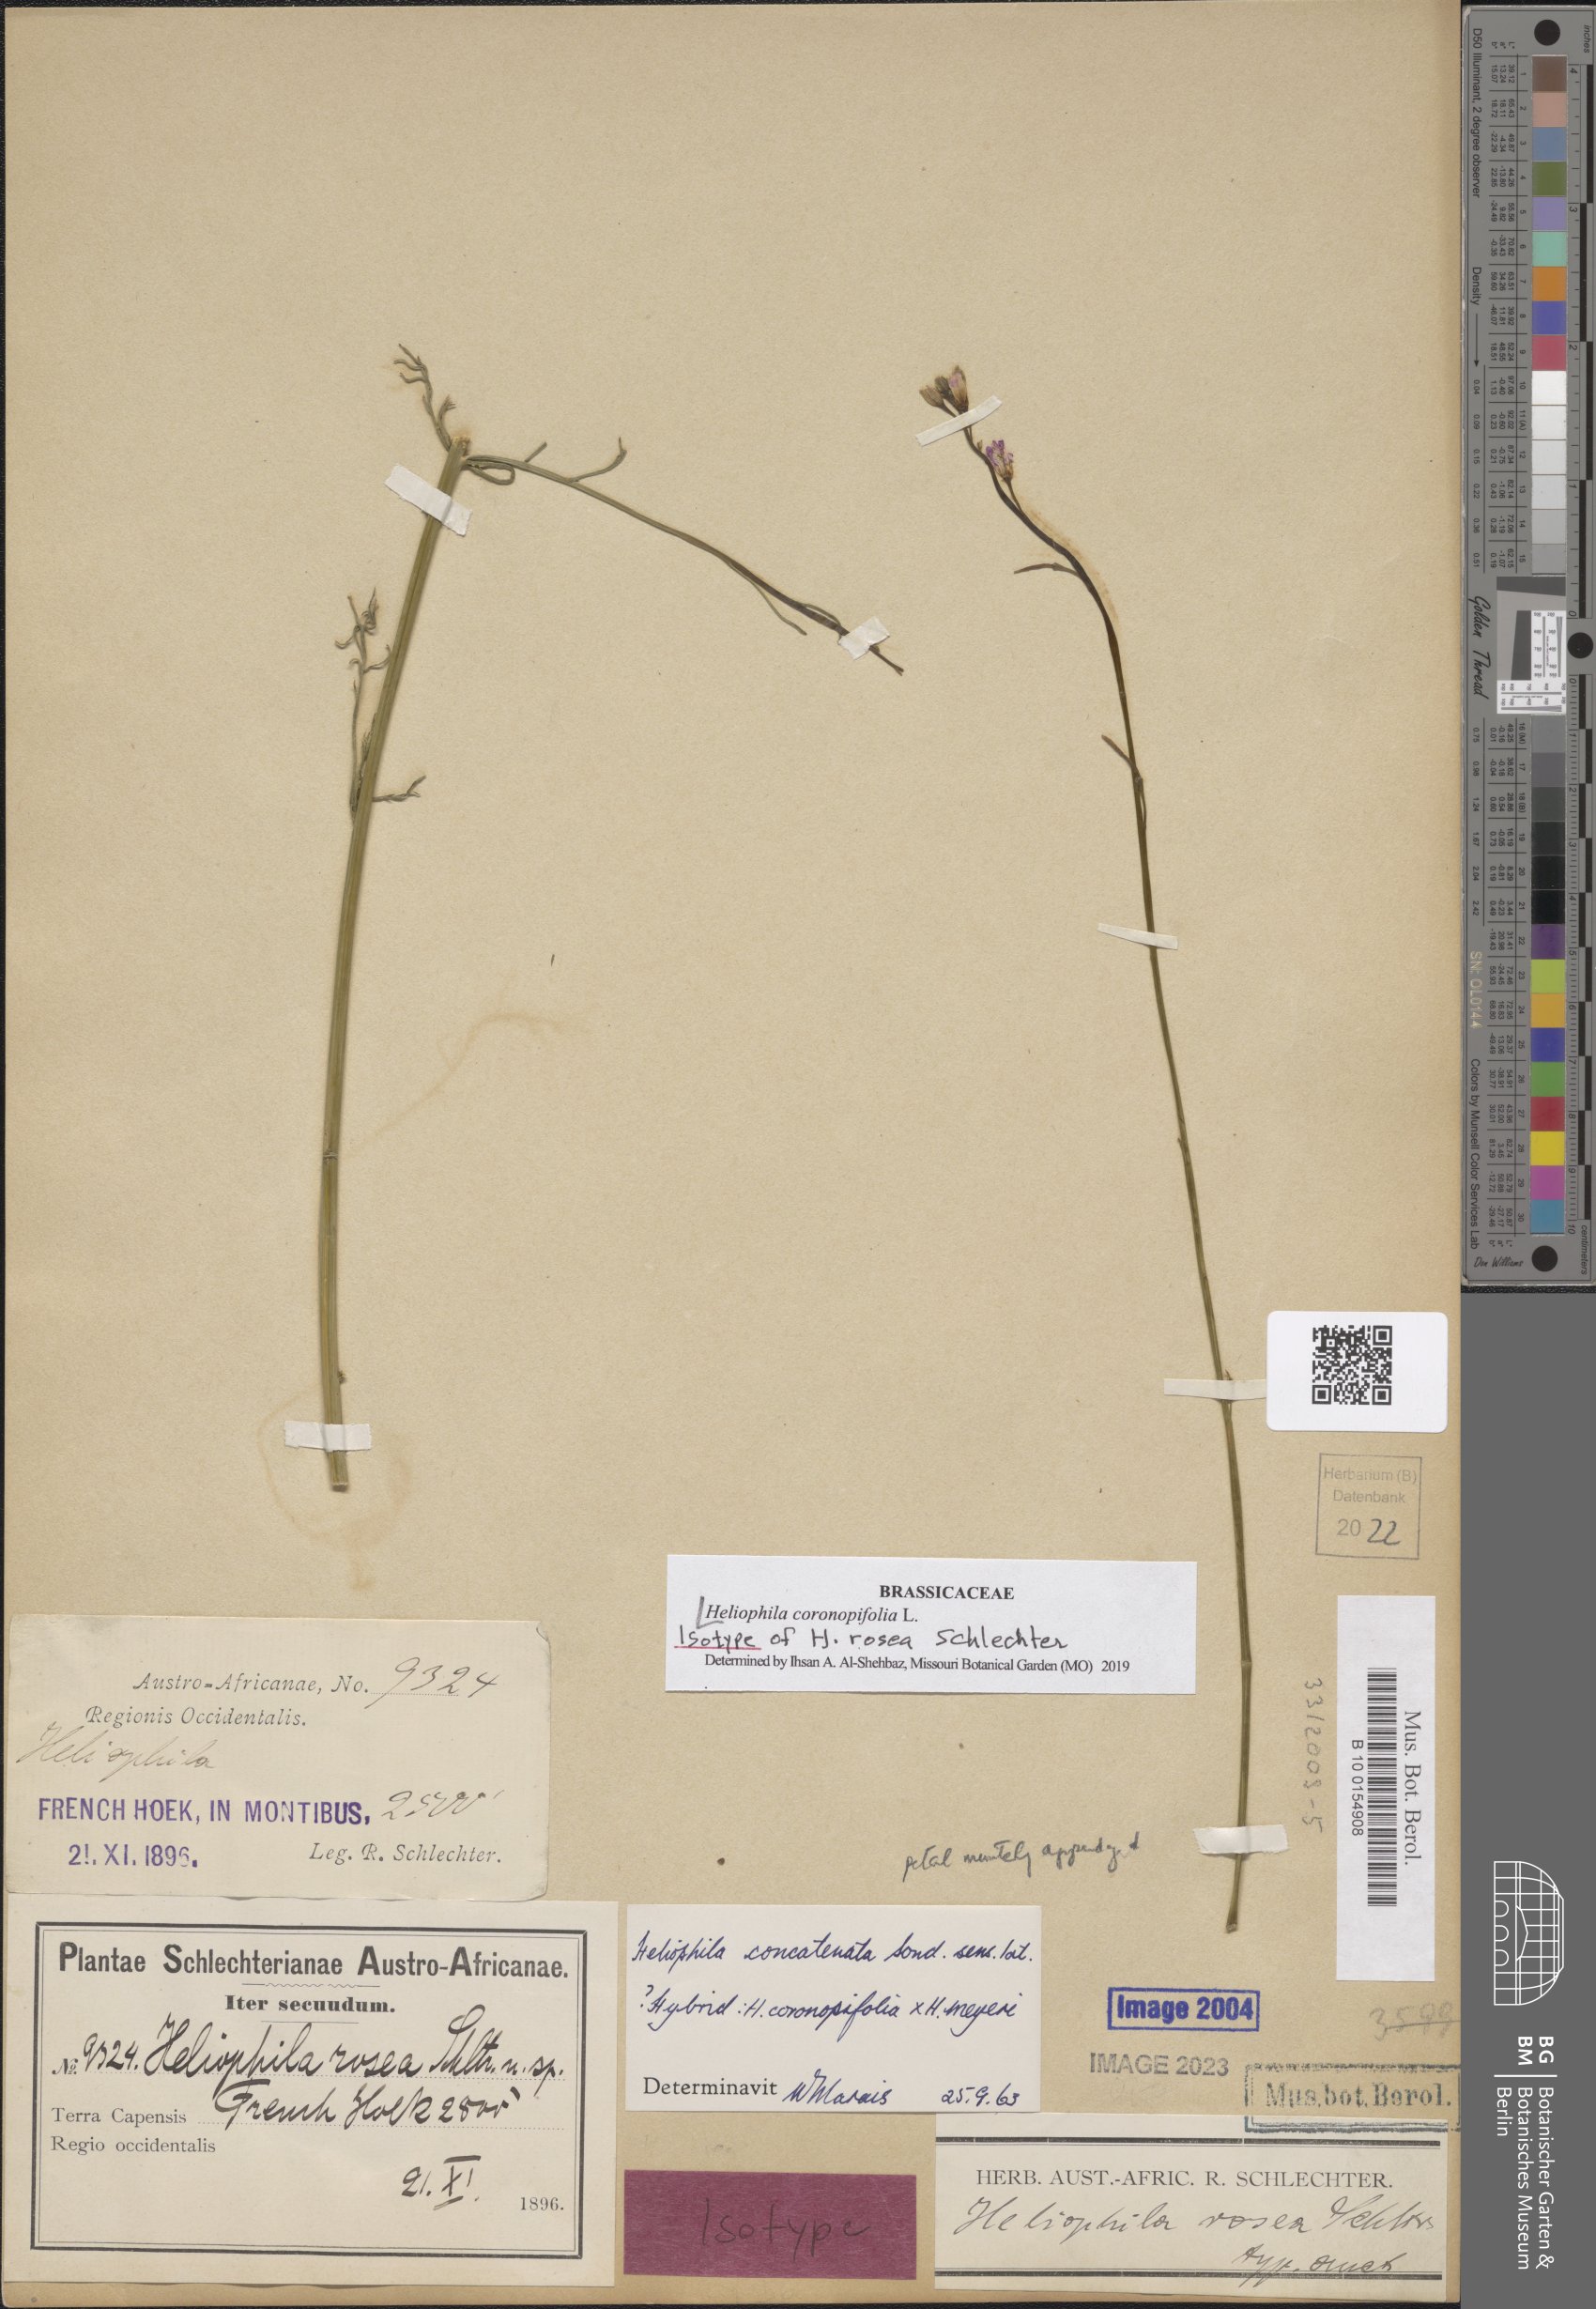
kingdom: Plantae
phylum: Tracheophyta
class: Magnoliopsida
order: Brassicales
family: Brassicaceae
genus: Heliophila
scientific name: Heliophila coronopifolia
